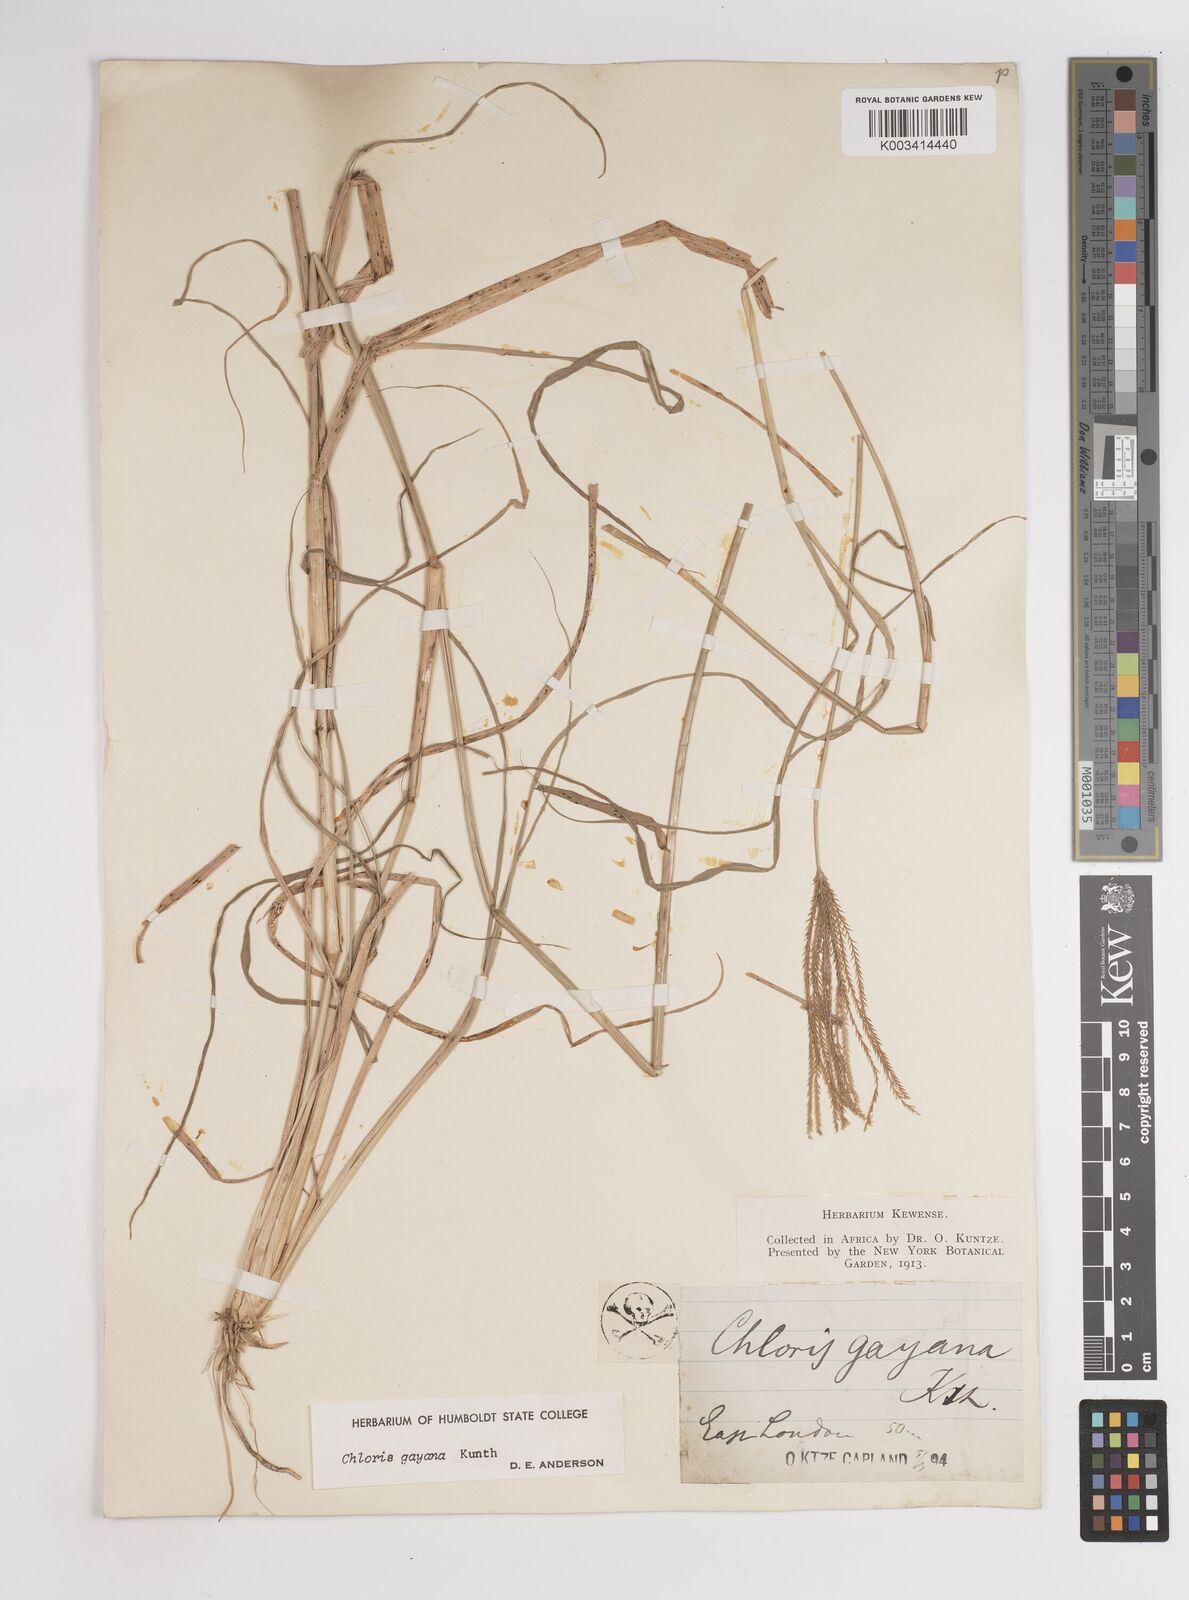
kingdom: Plantae
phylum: Tracheophyta
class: Liliopsida
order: Poales
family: Poaceae
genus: Chloris
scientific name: Chloris gayana
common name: Rhodes grass
